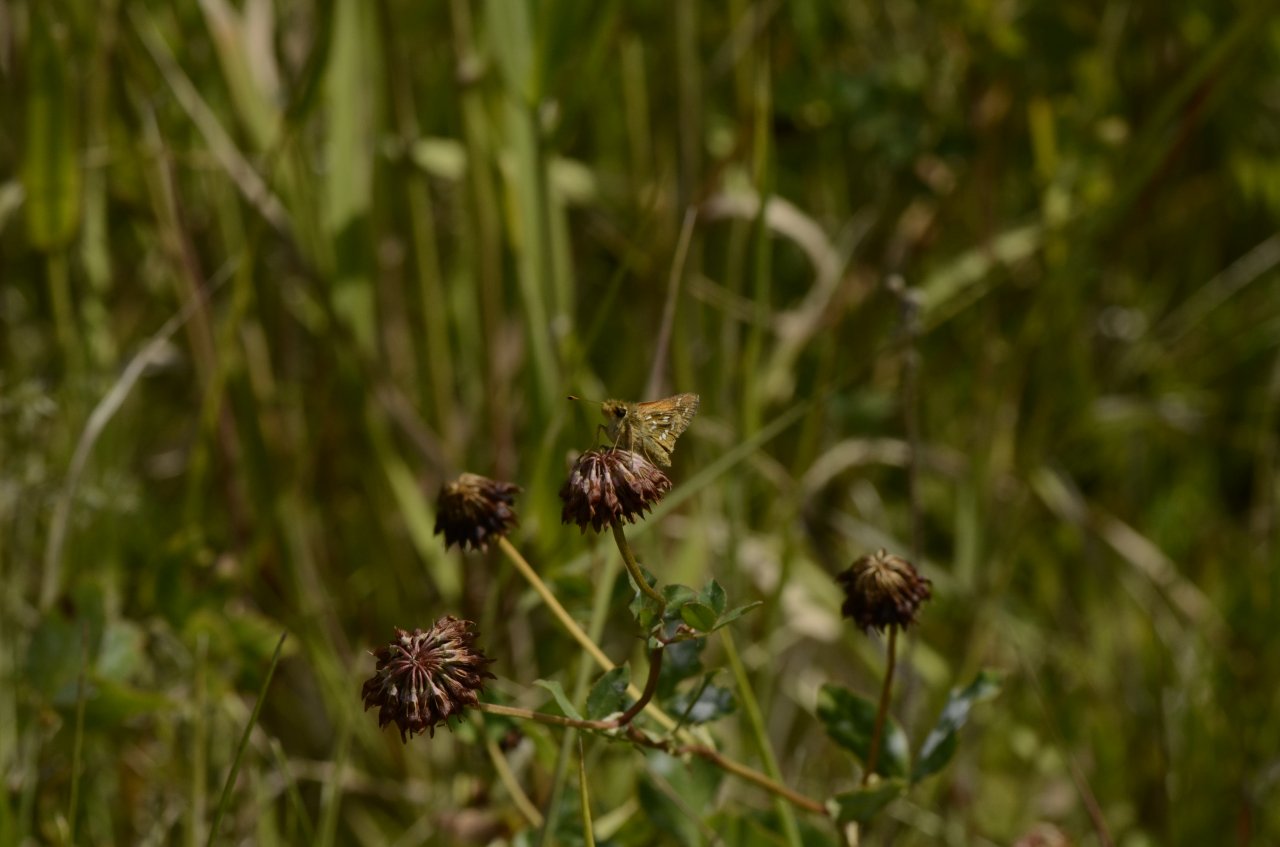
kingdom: Animalia
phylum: Arthropoda
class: Insecta
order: Lepidoptera
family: Hesperiidae
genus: Hesperia
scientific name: Hesperia comma
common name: Common Branded Skipper
